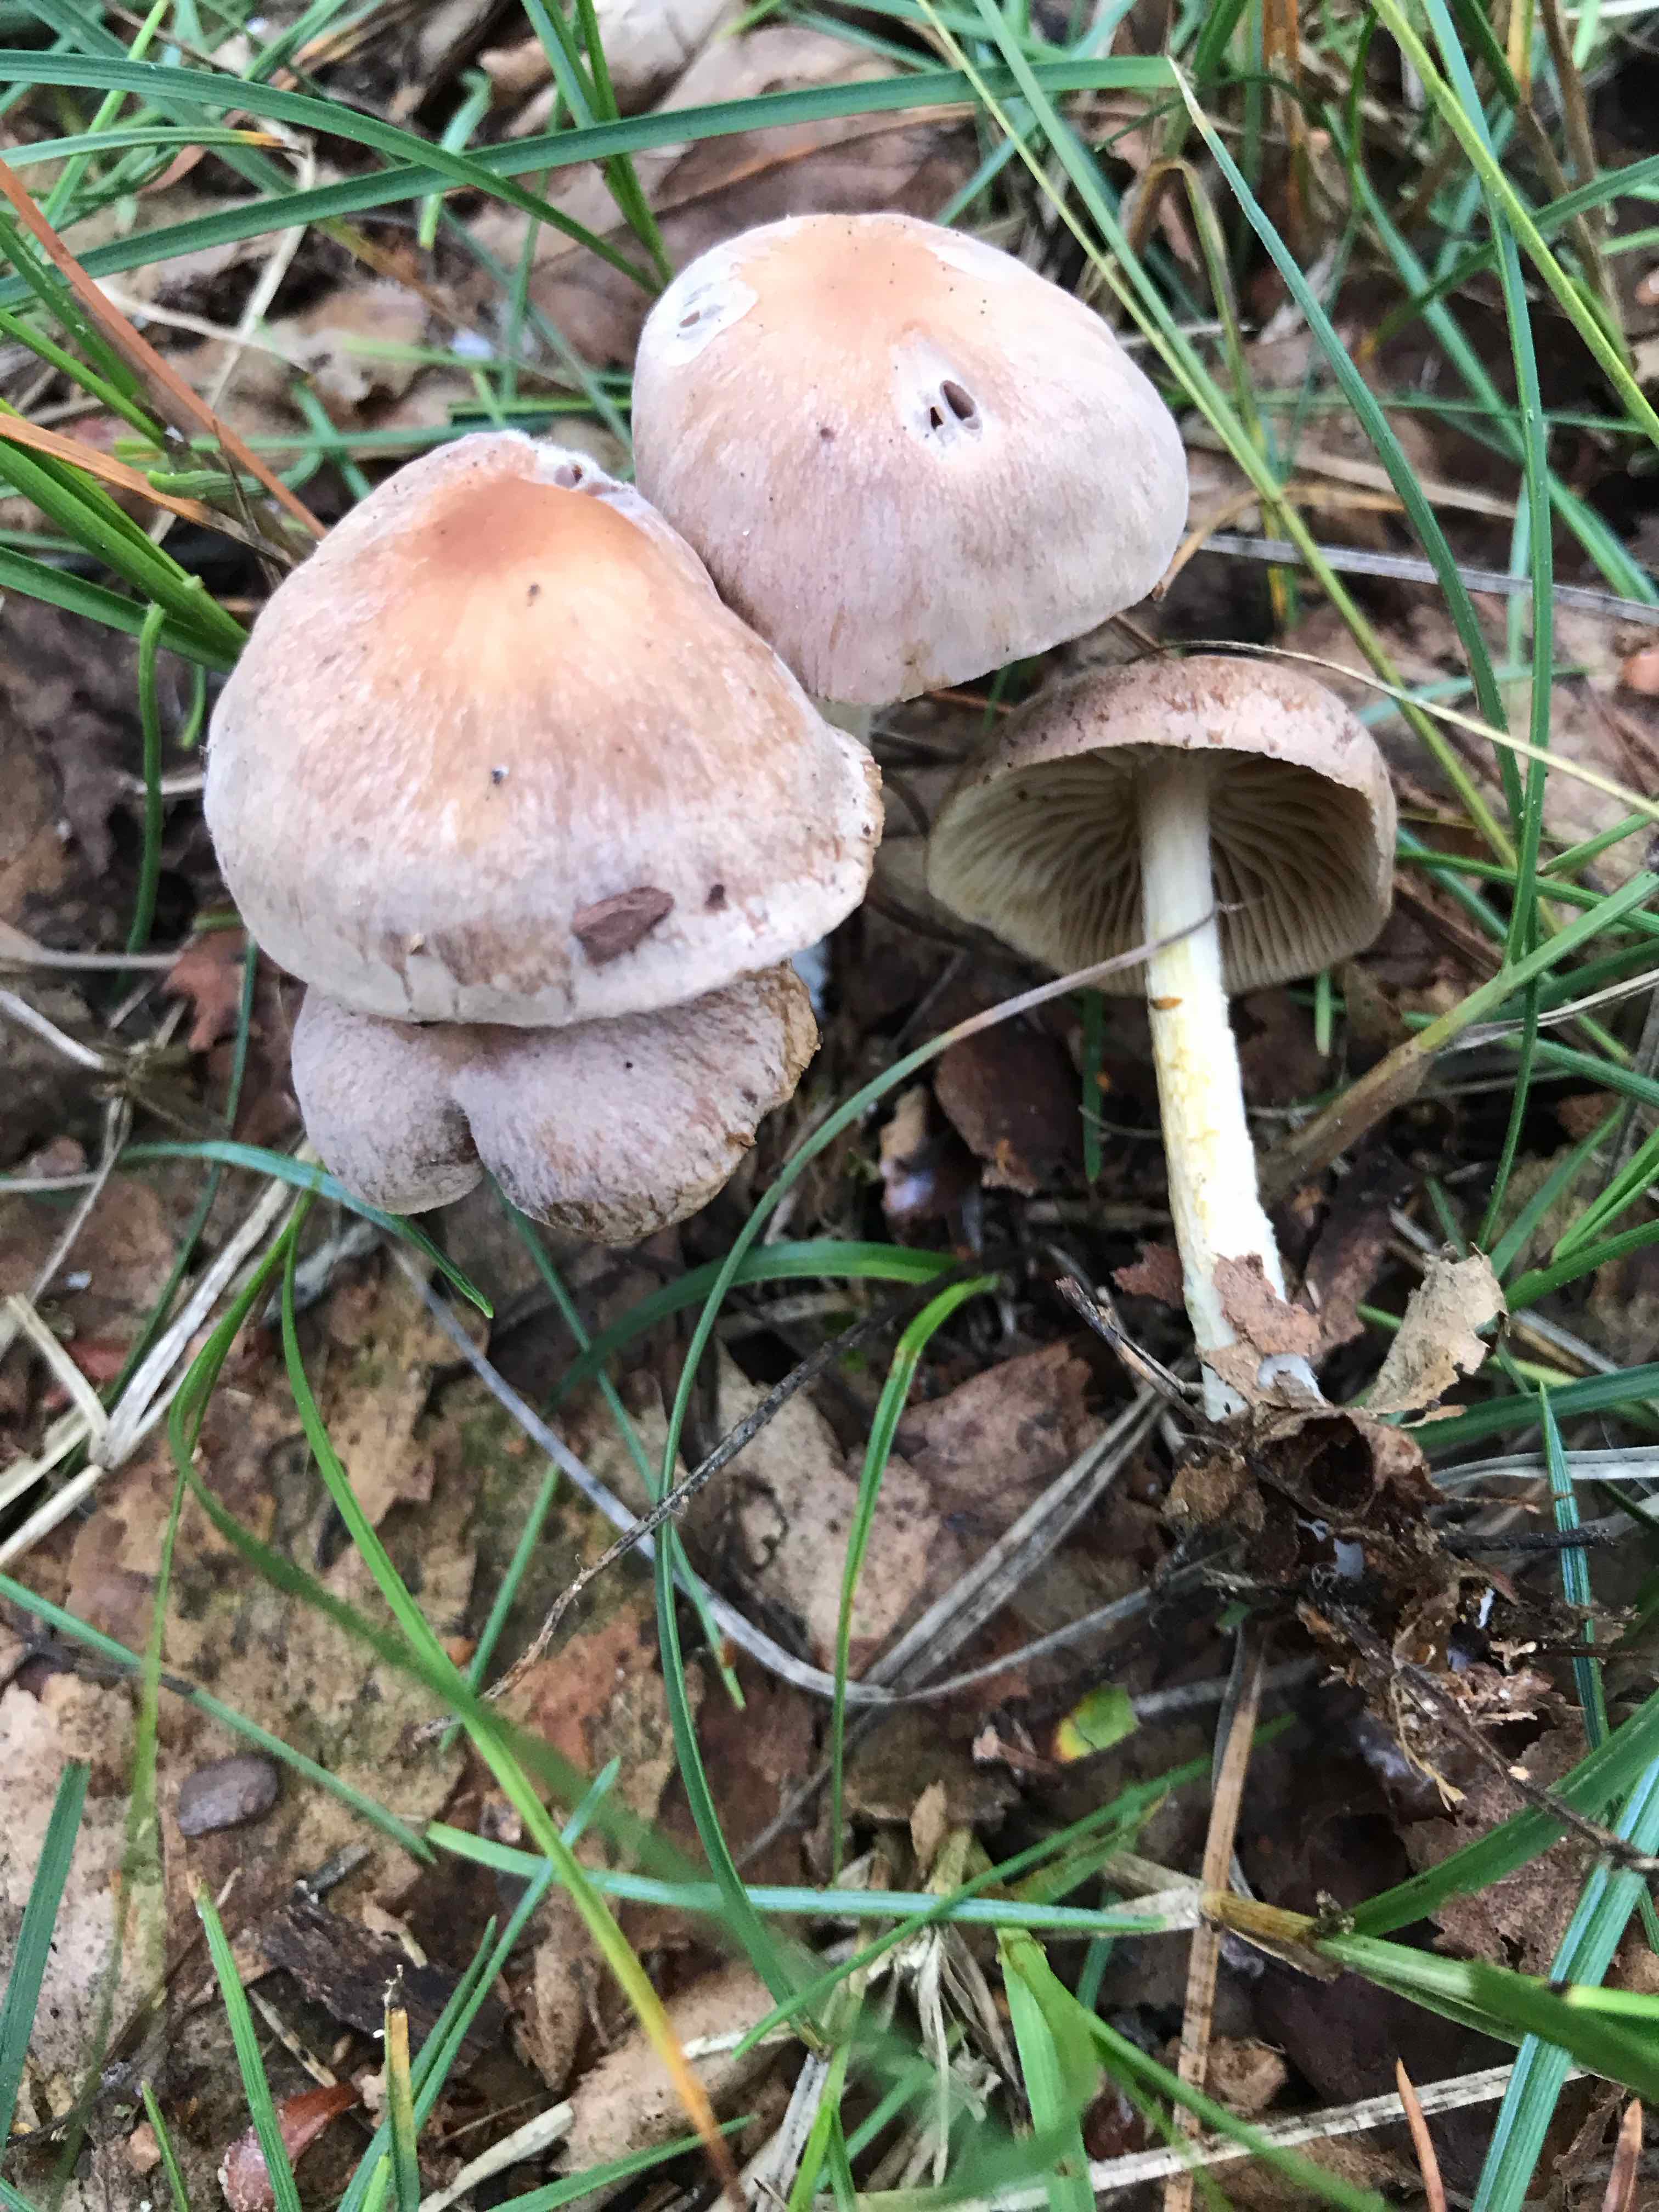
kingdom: Fungi
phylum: Basidiomycota
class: Agaricomycetes
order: Agaricales
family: Omphalotaceae
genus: Collybiopsis
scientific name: Collybiopsis peronata
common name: bestøvlet fladhat
